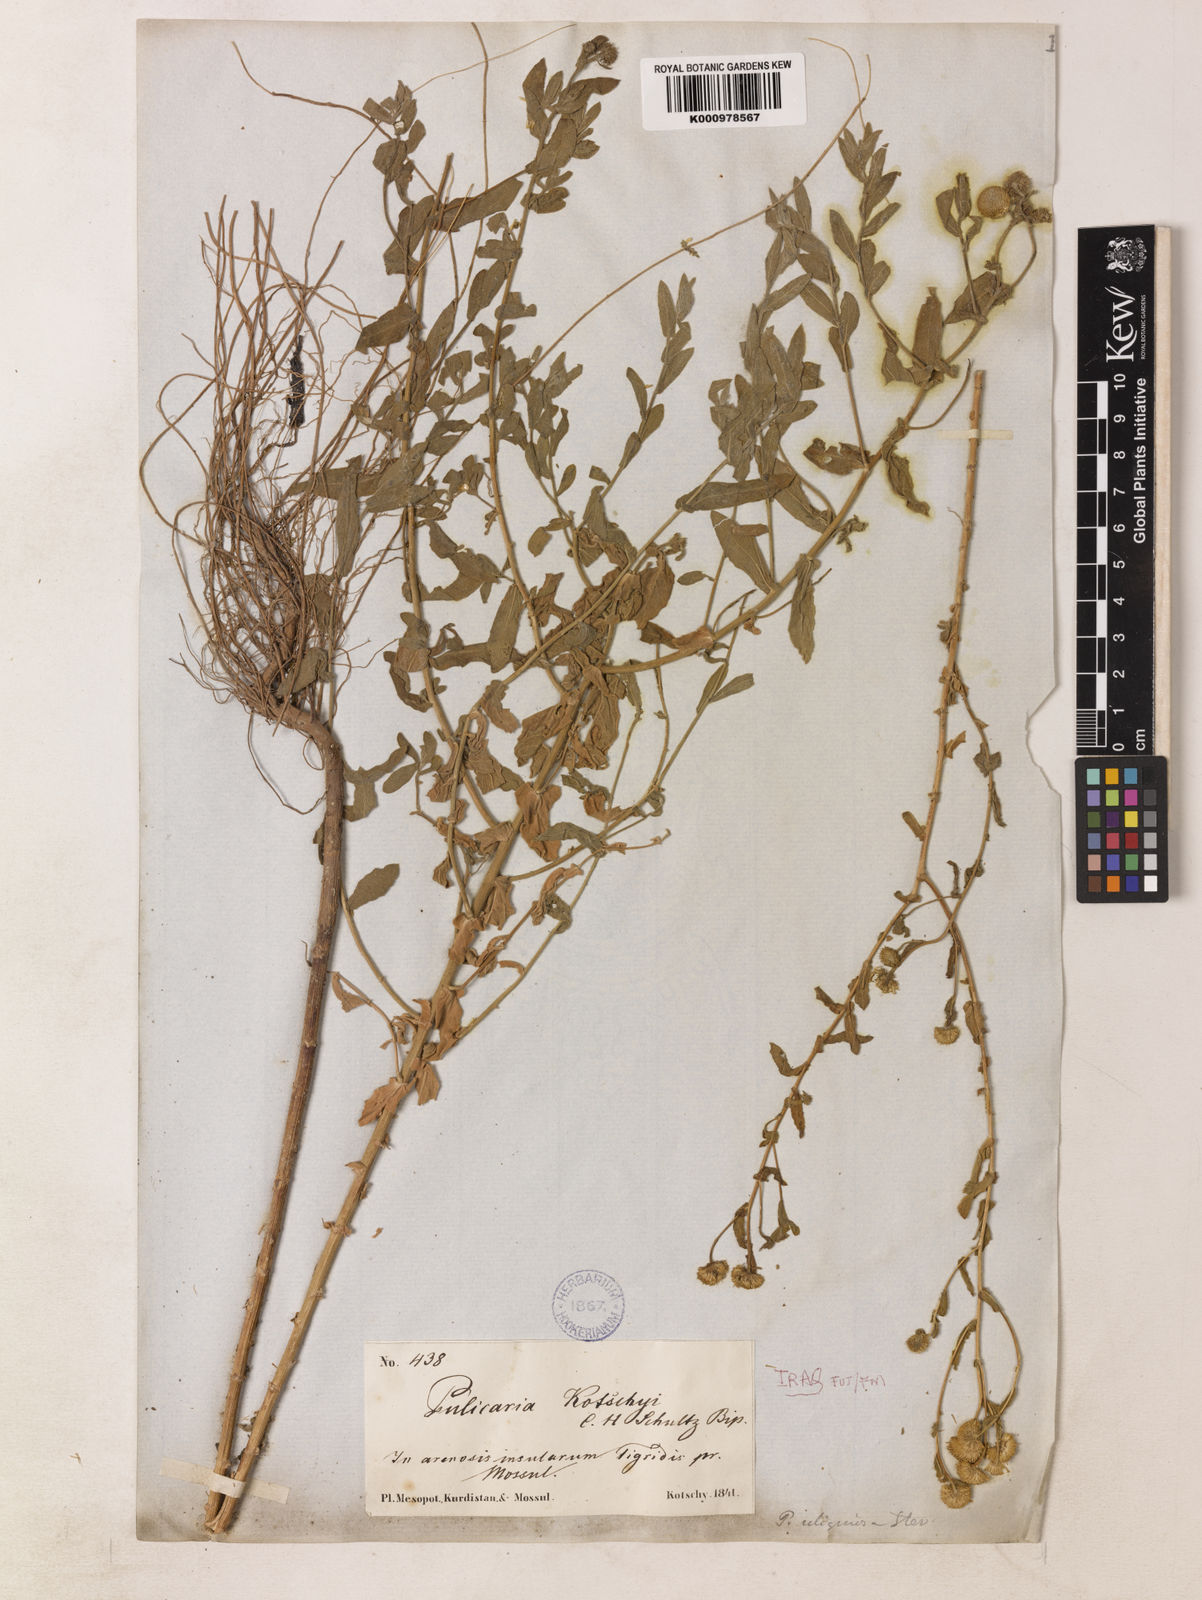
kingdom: Plantae
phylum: Tracheophyta
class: Magnoliopsida
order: Asterales
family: Asteraceae
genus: Pulicaria
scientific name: Pulicaria
